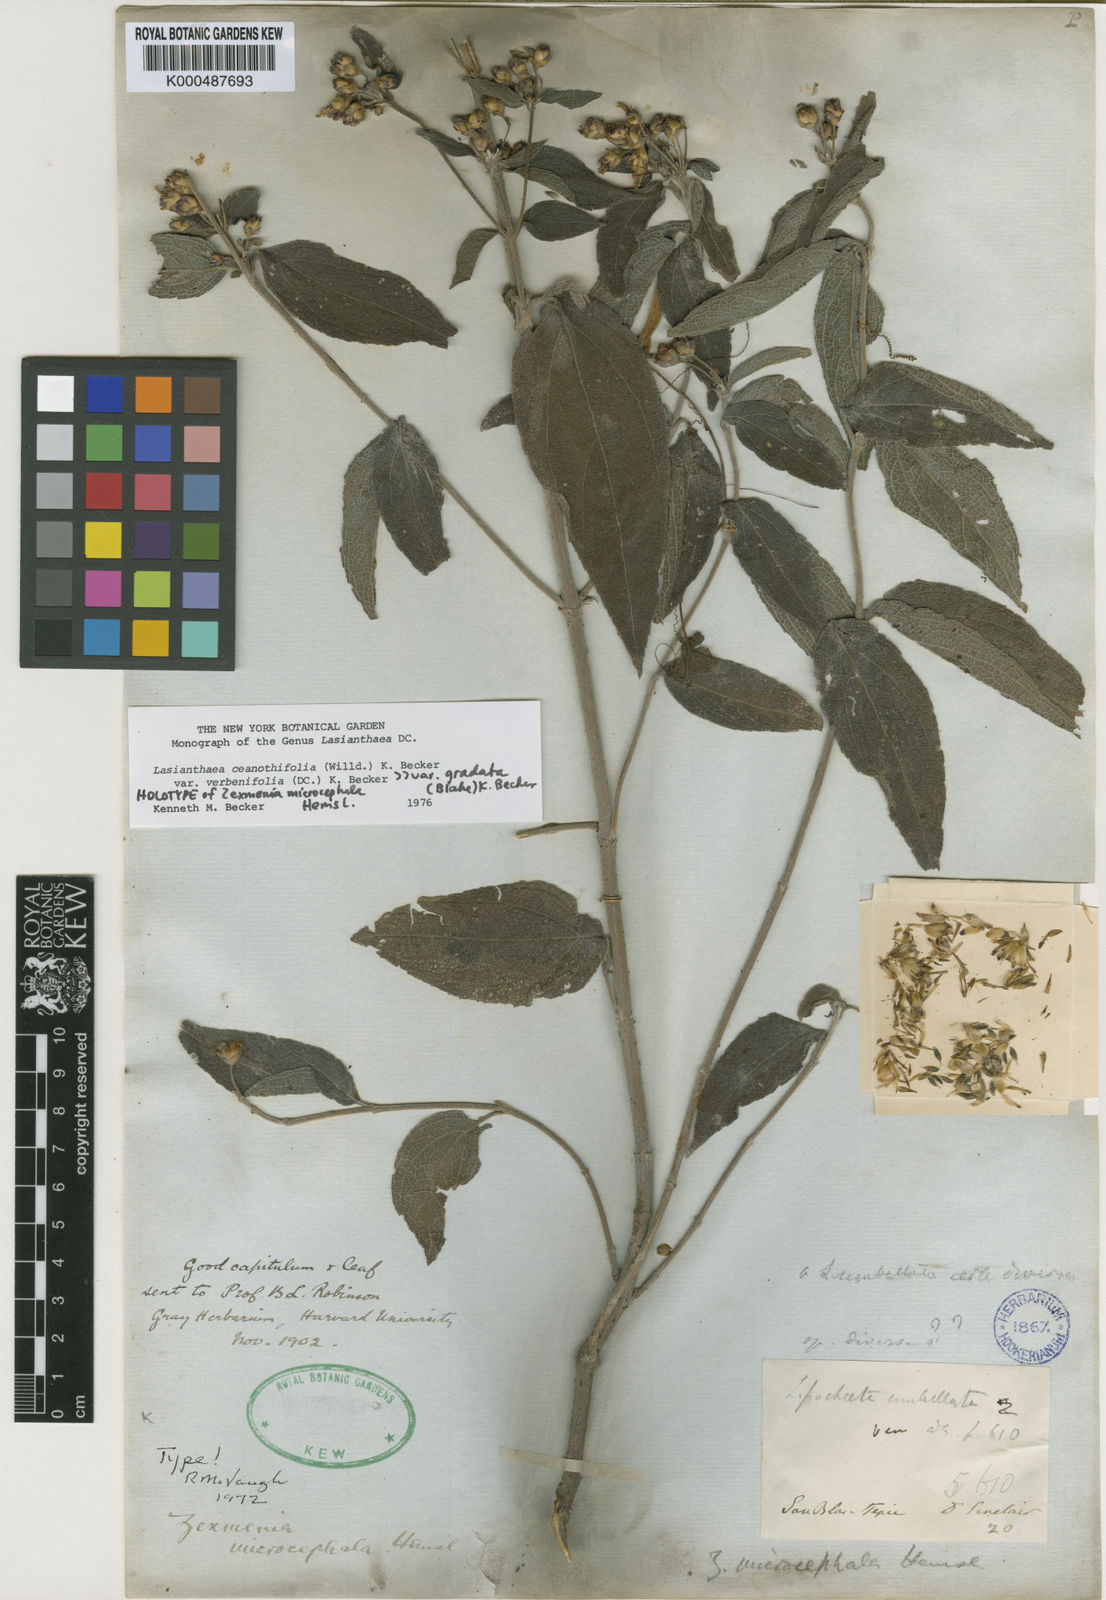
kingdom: Plantae
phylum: Tracheophyta
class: Magnoliopsida
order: Asterales
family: Asteraceae
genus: Lasianthaea
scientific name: Lasianthaea ceanothifolia
